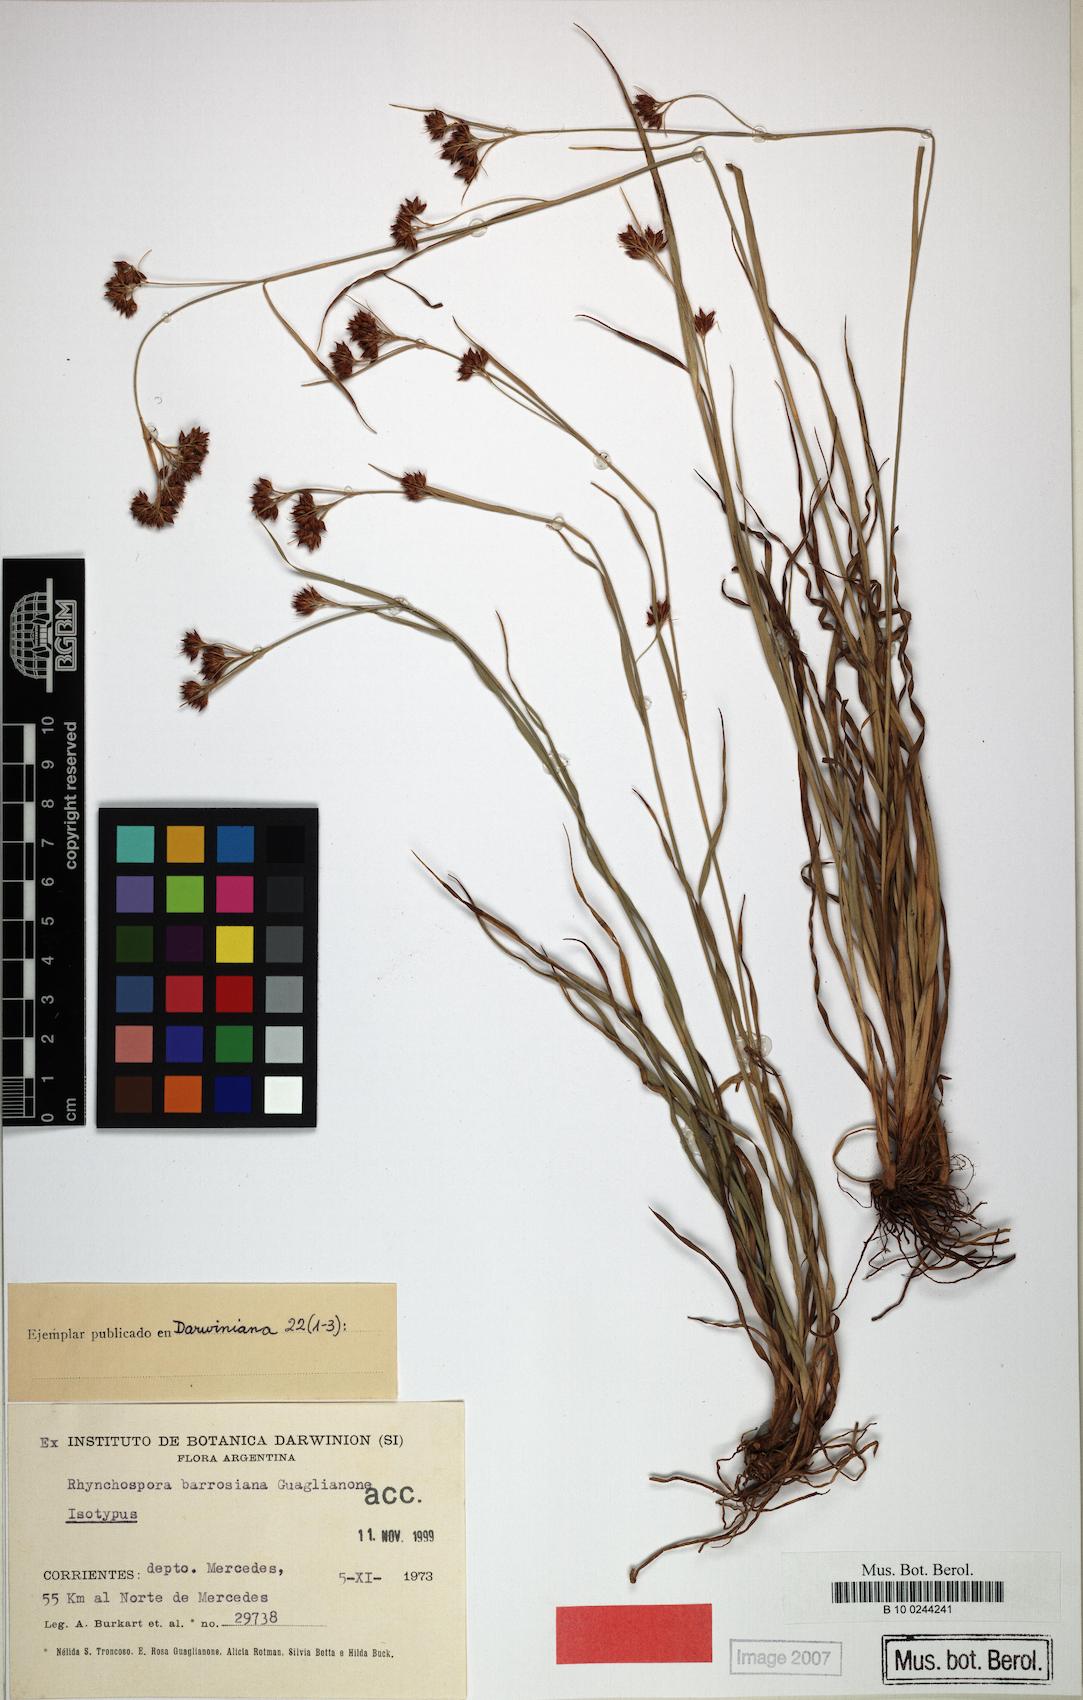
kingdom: Plantae
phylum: Tracheophyta
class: Liliopsida
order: Poales
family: Cyperaceae
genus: Rhynchospora
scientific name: Rhynchospora barrosiana
